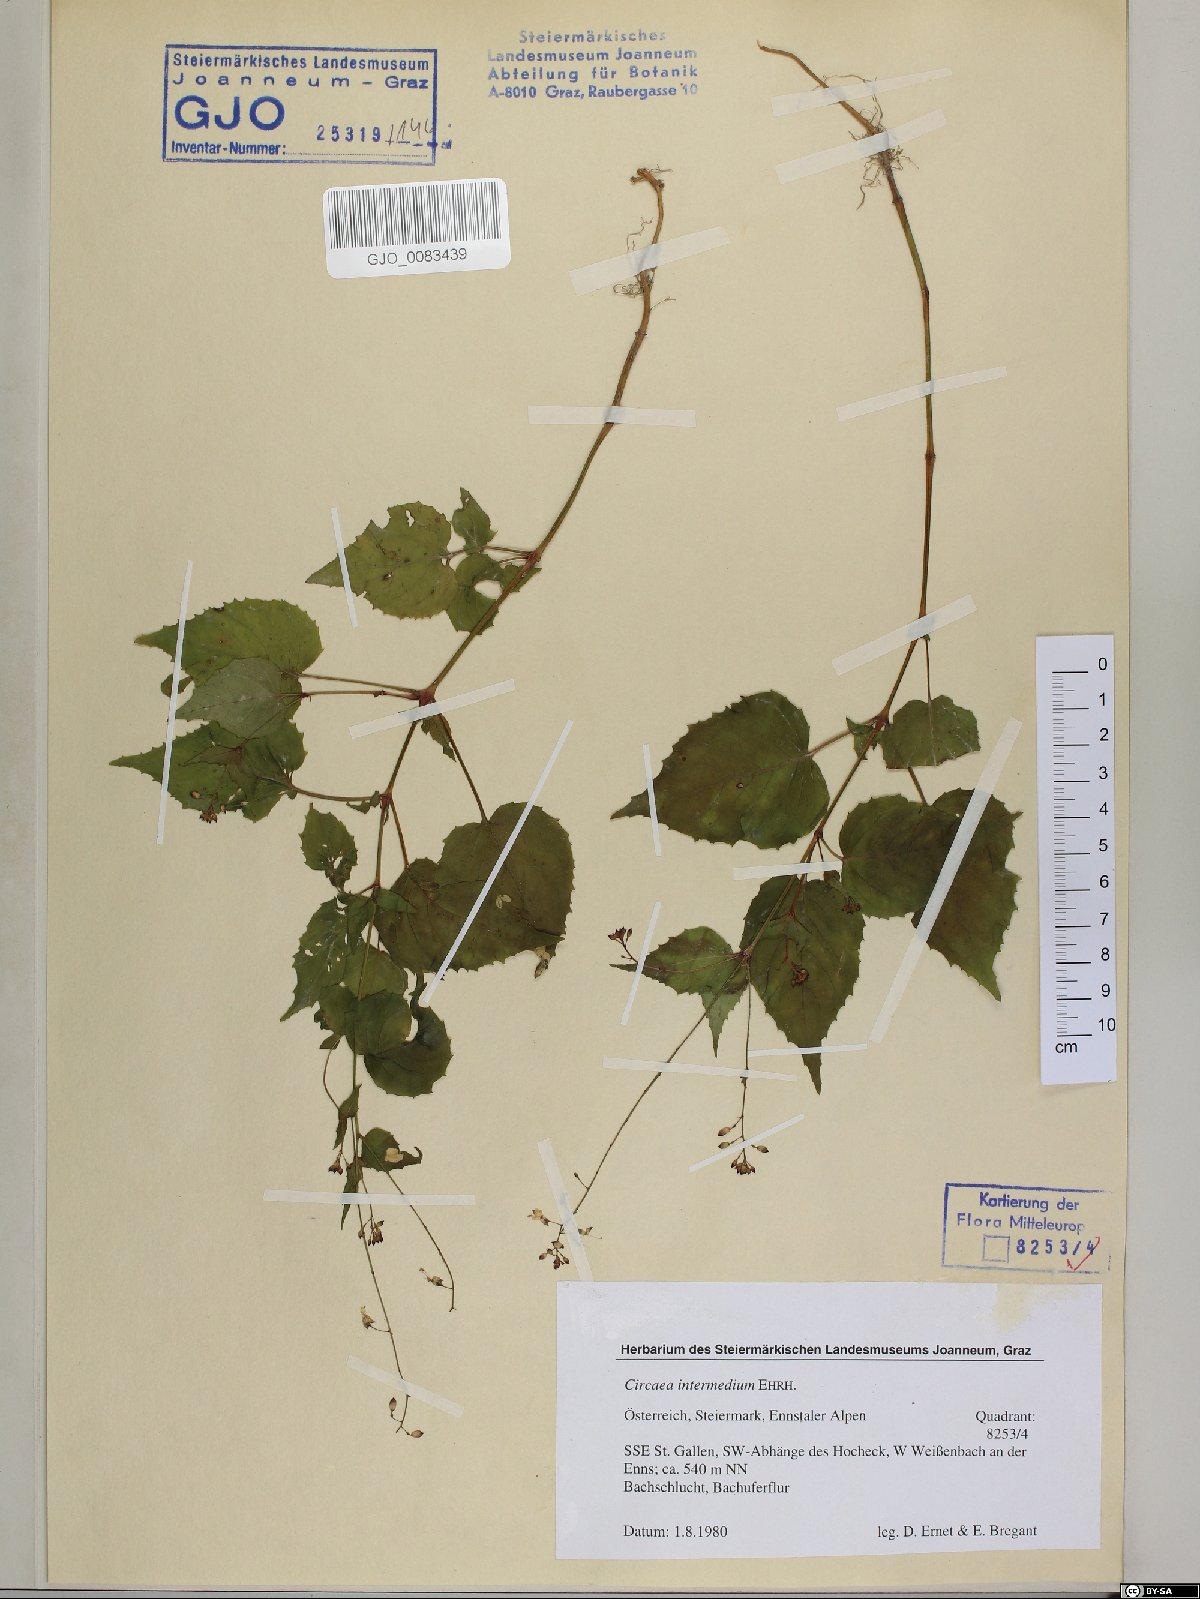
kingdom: Plantae
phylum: Tracheophyta
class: Magnoliopsida
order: Myrtales
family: Onagraceae
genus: Circaea
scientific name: Circaea intermedia
